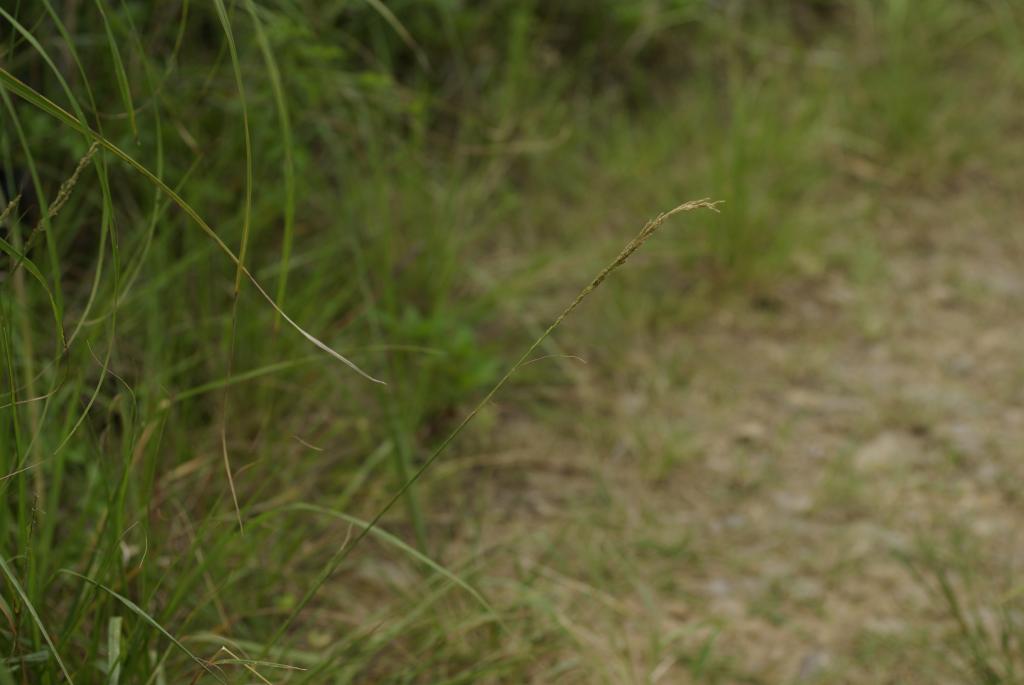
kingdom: Plantae
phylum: Tracheophyta
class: Liliopsida
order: Poales
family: Poaceae
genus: Sporobolus
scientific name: Sporobolus fertilis
